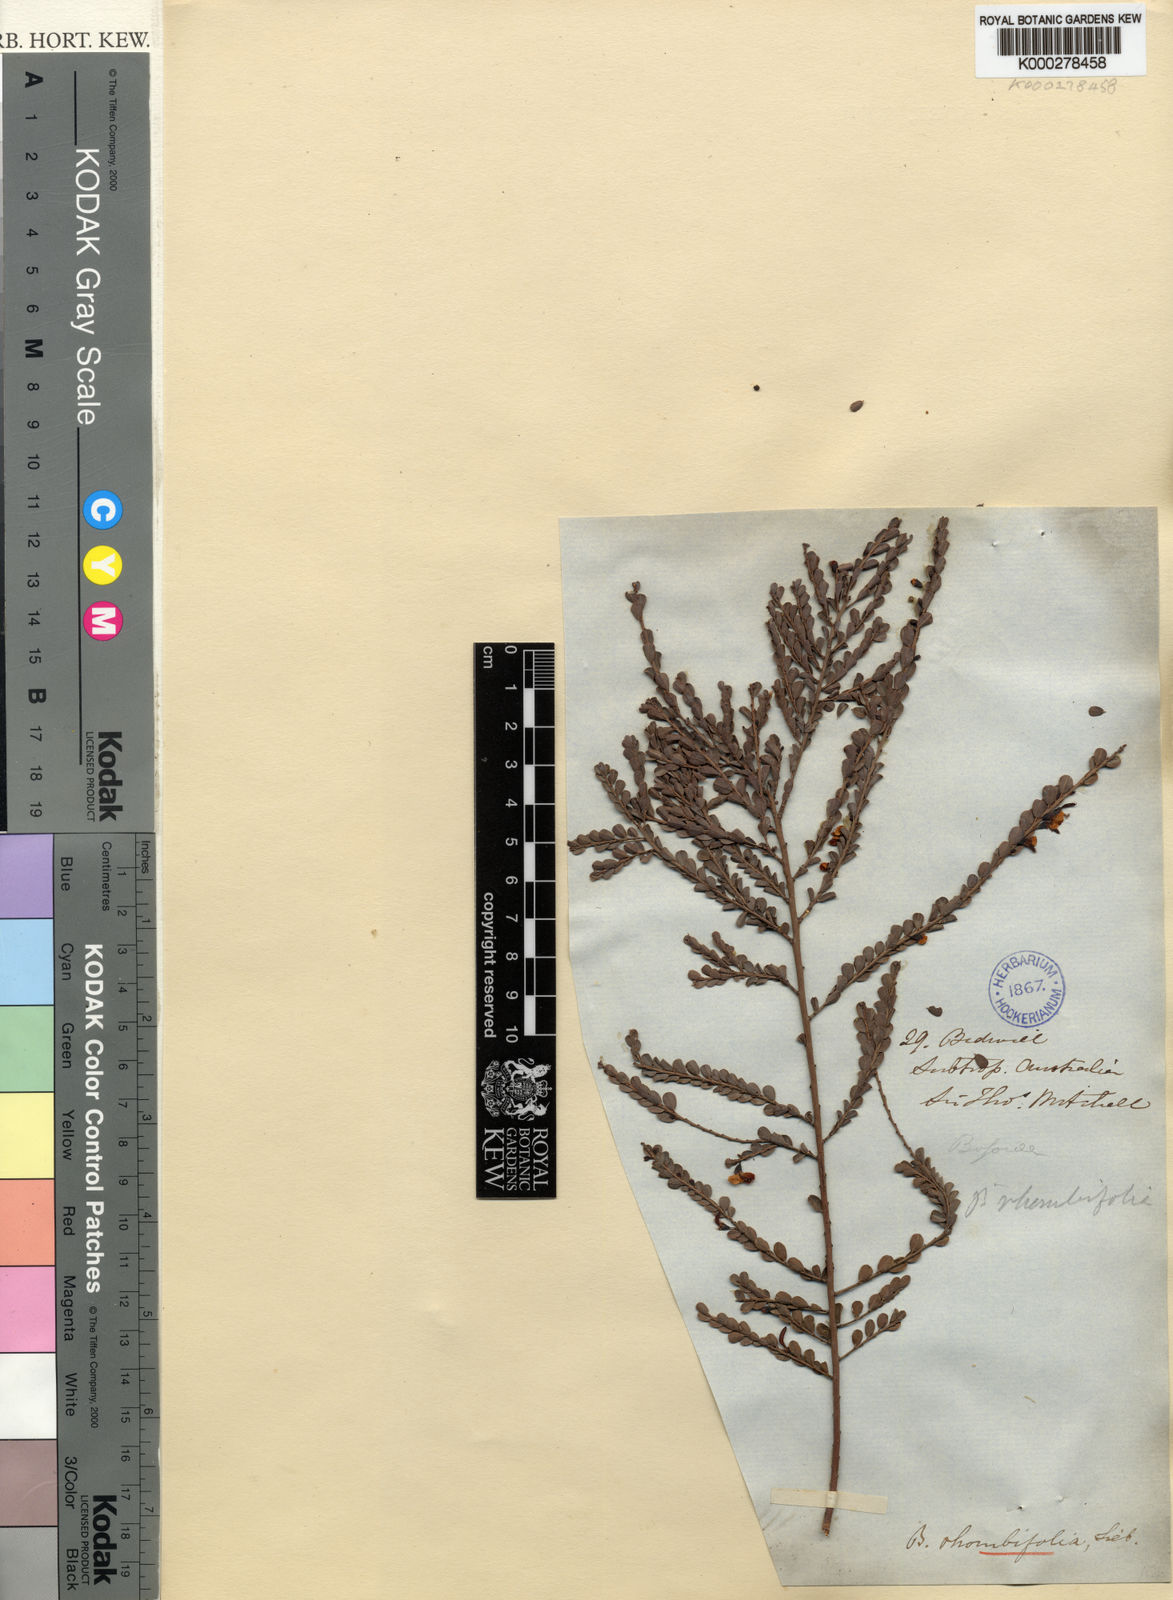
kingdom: Plantae
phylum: Tracheophyta
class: Magnoliopsida
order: Fabales
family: Fabaceae
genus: Bossiaea
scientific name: Bossiaea rhombifolia
